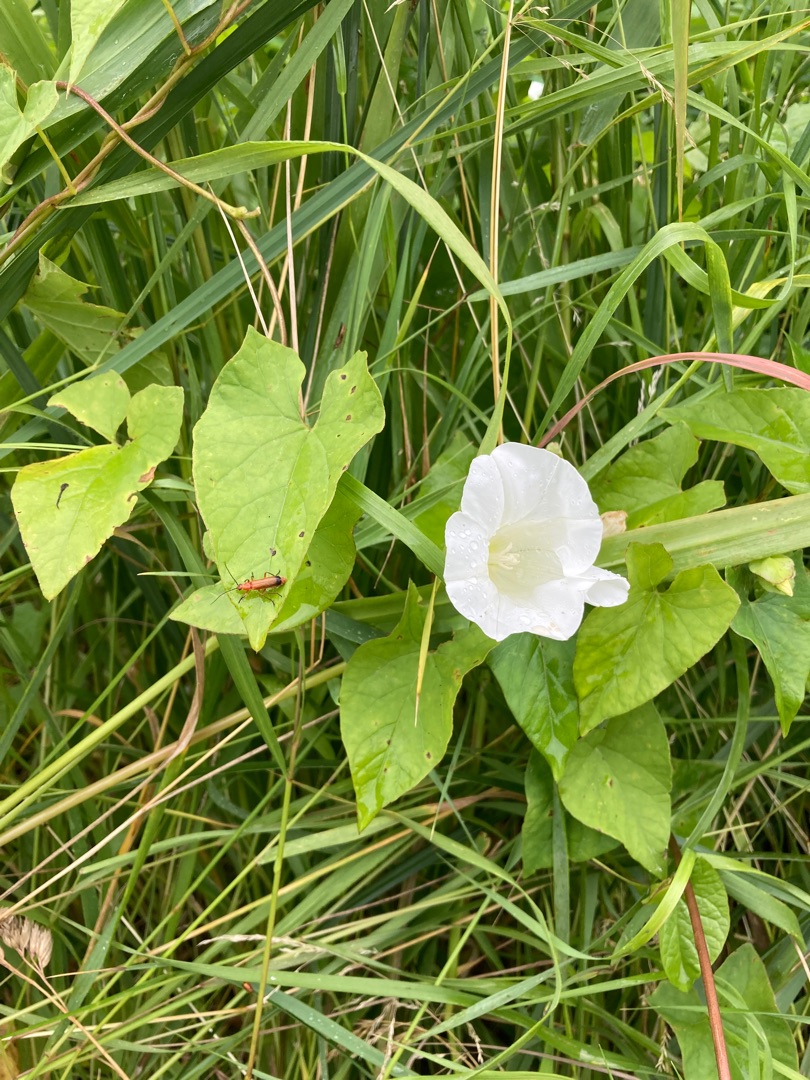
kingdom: Plantae
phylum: Tracheophyta
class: Magnoliopsida
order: Solanales
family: Convolvulaceae
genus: Calystegia
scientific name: Calystegia sepium
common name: Gærde-snerle
